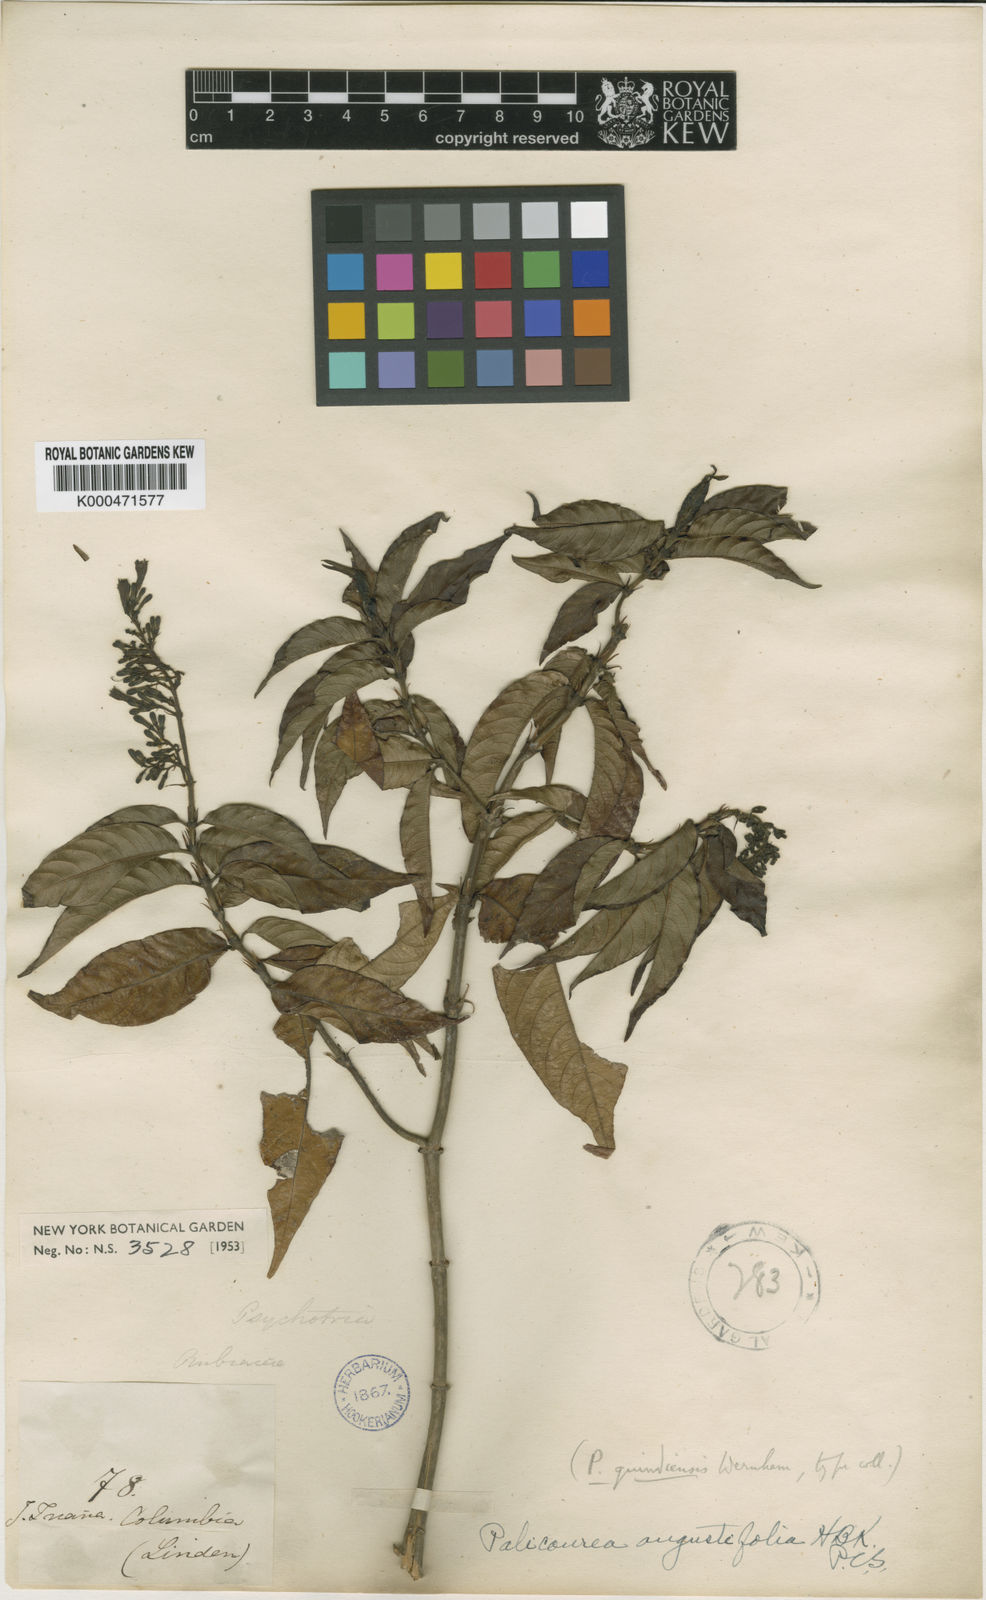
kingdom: Plantae
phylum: Tracheophyta
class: Magnoliopsida
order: Gentianales
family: Rubiaceae
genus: Palicourea
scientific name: Palicourea angustifolia
